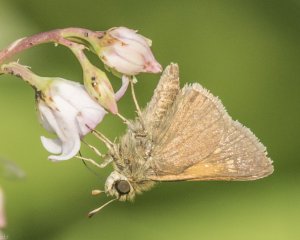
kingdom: Animalia
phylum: Arthropoda
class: Insecta
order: Lepidoptera
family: Hesperiidae
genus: Polites
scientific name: Polites themistocles
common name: Tawny-edged Skipper
